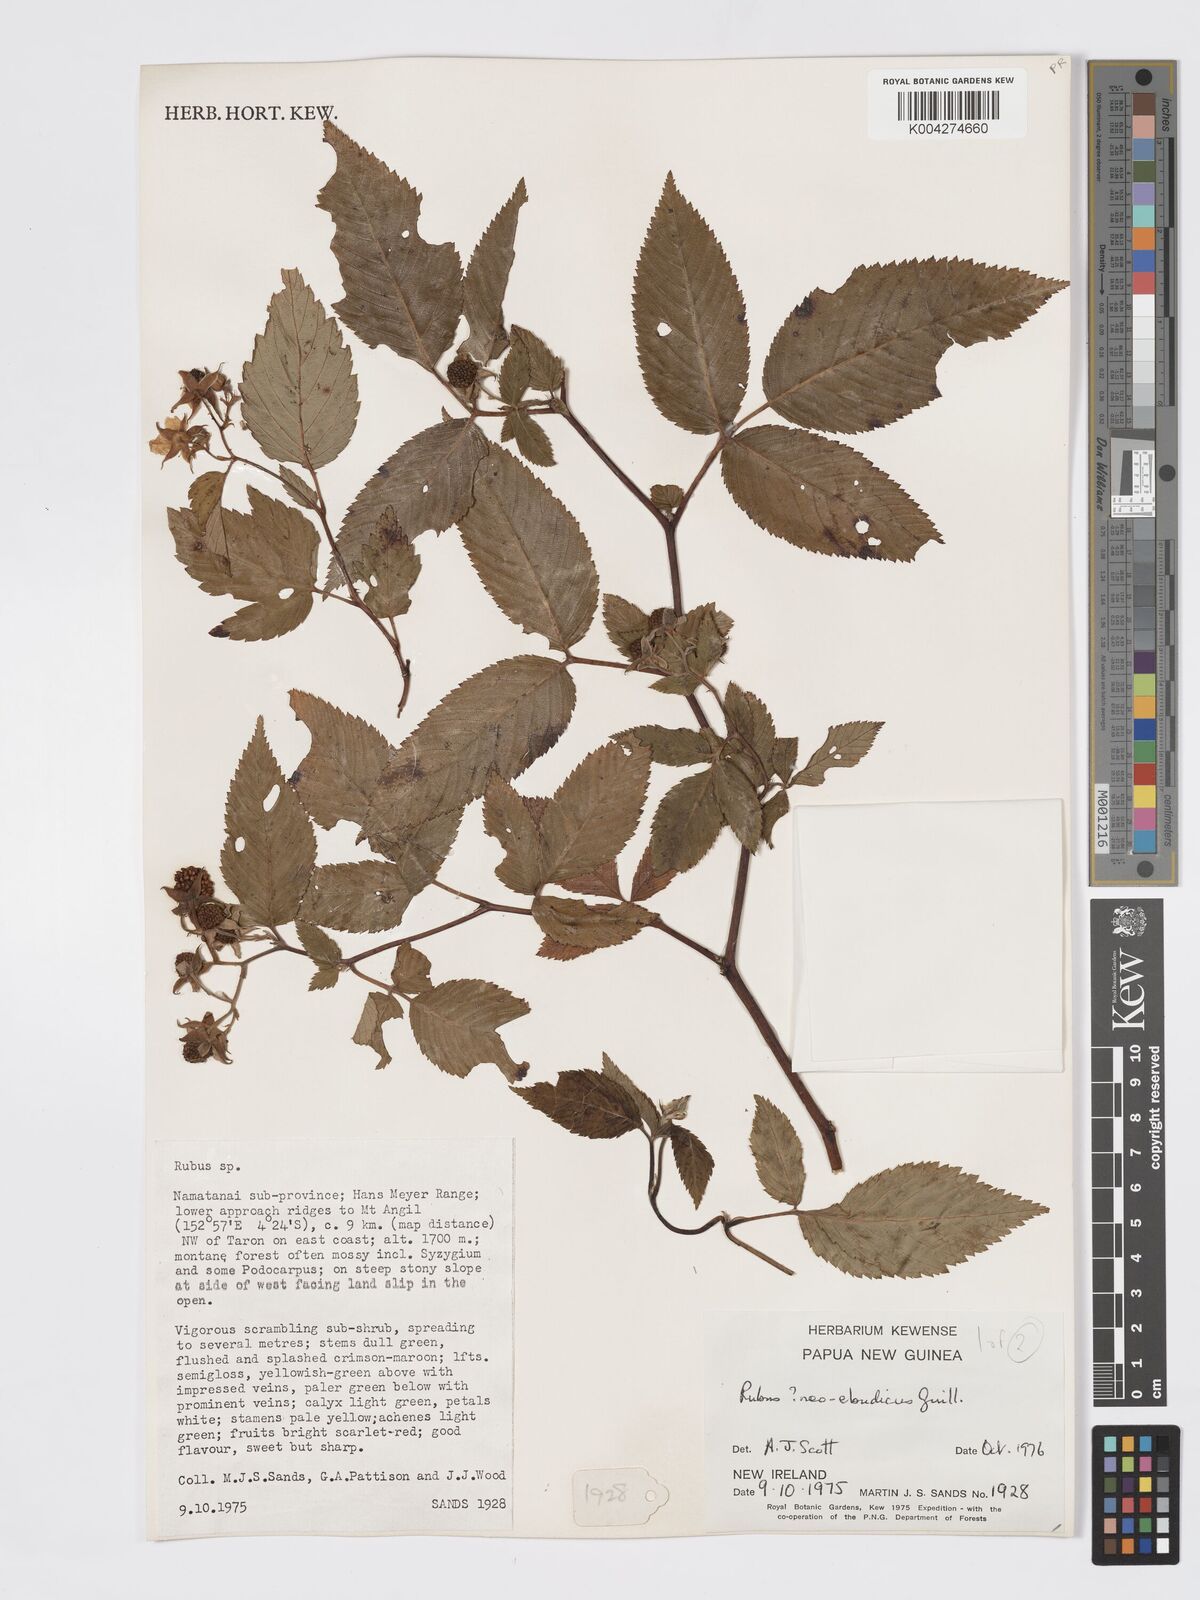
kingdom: Plantae
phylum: Tracheophyta
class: Magnoliopsida
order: Rosales
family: Rosaceae
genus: Rubus
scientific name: Rubus neoebudicus
